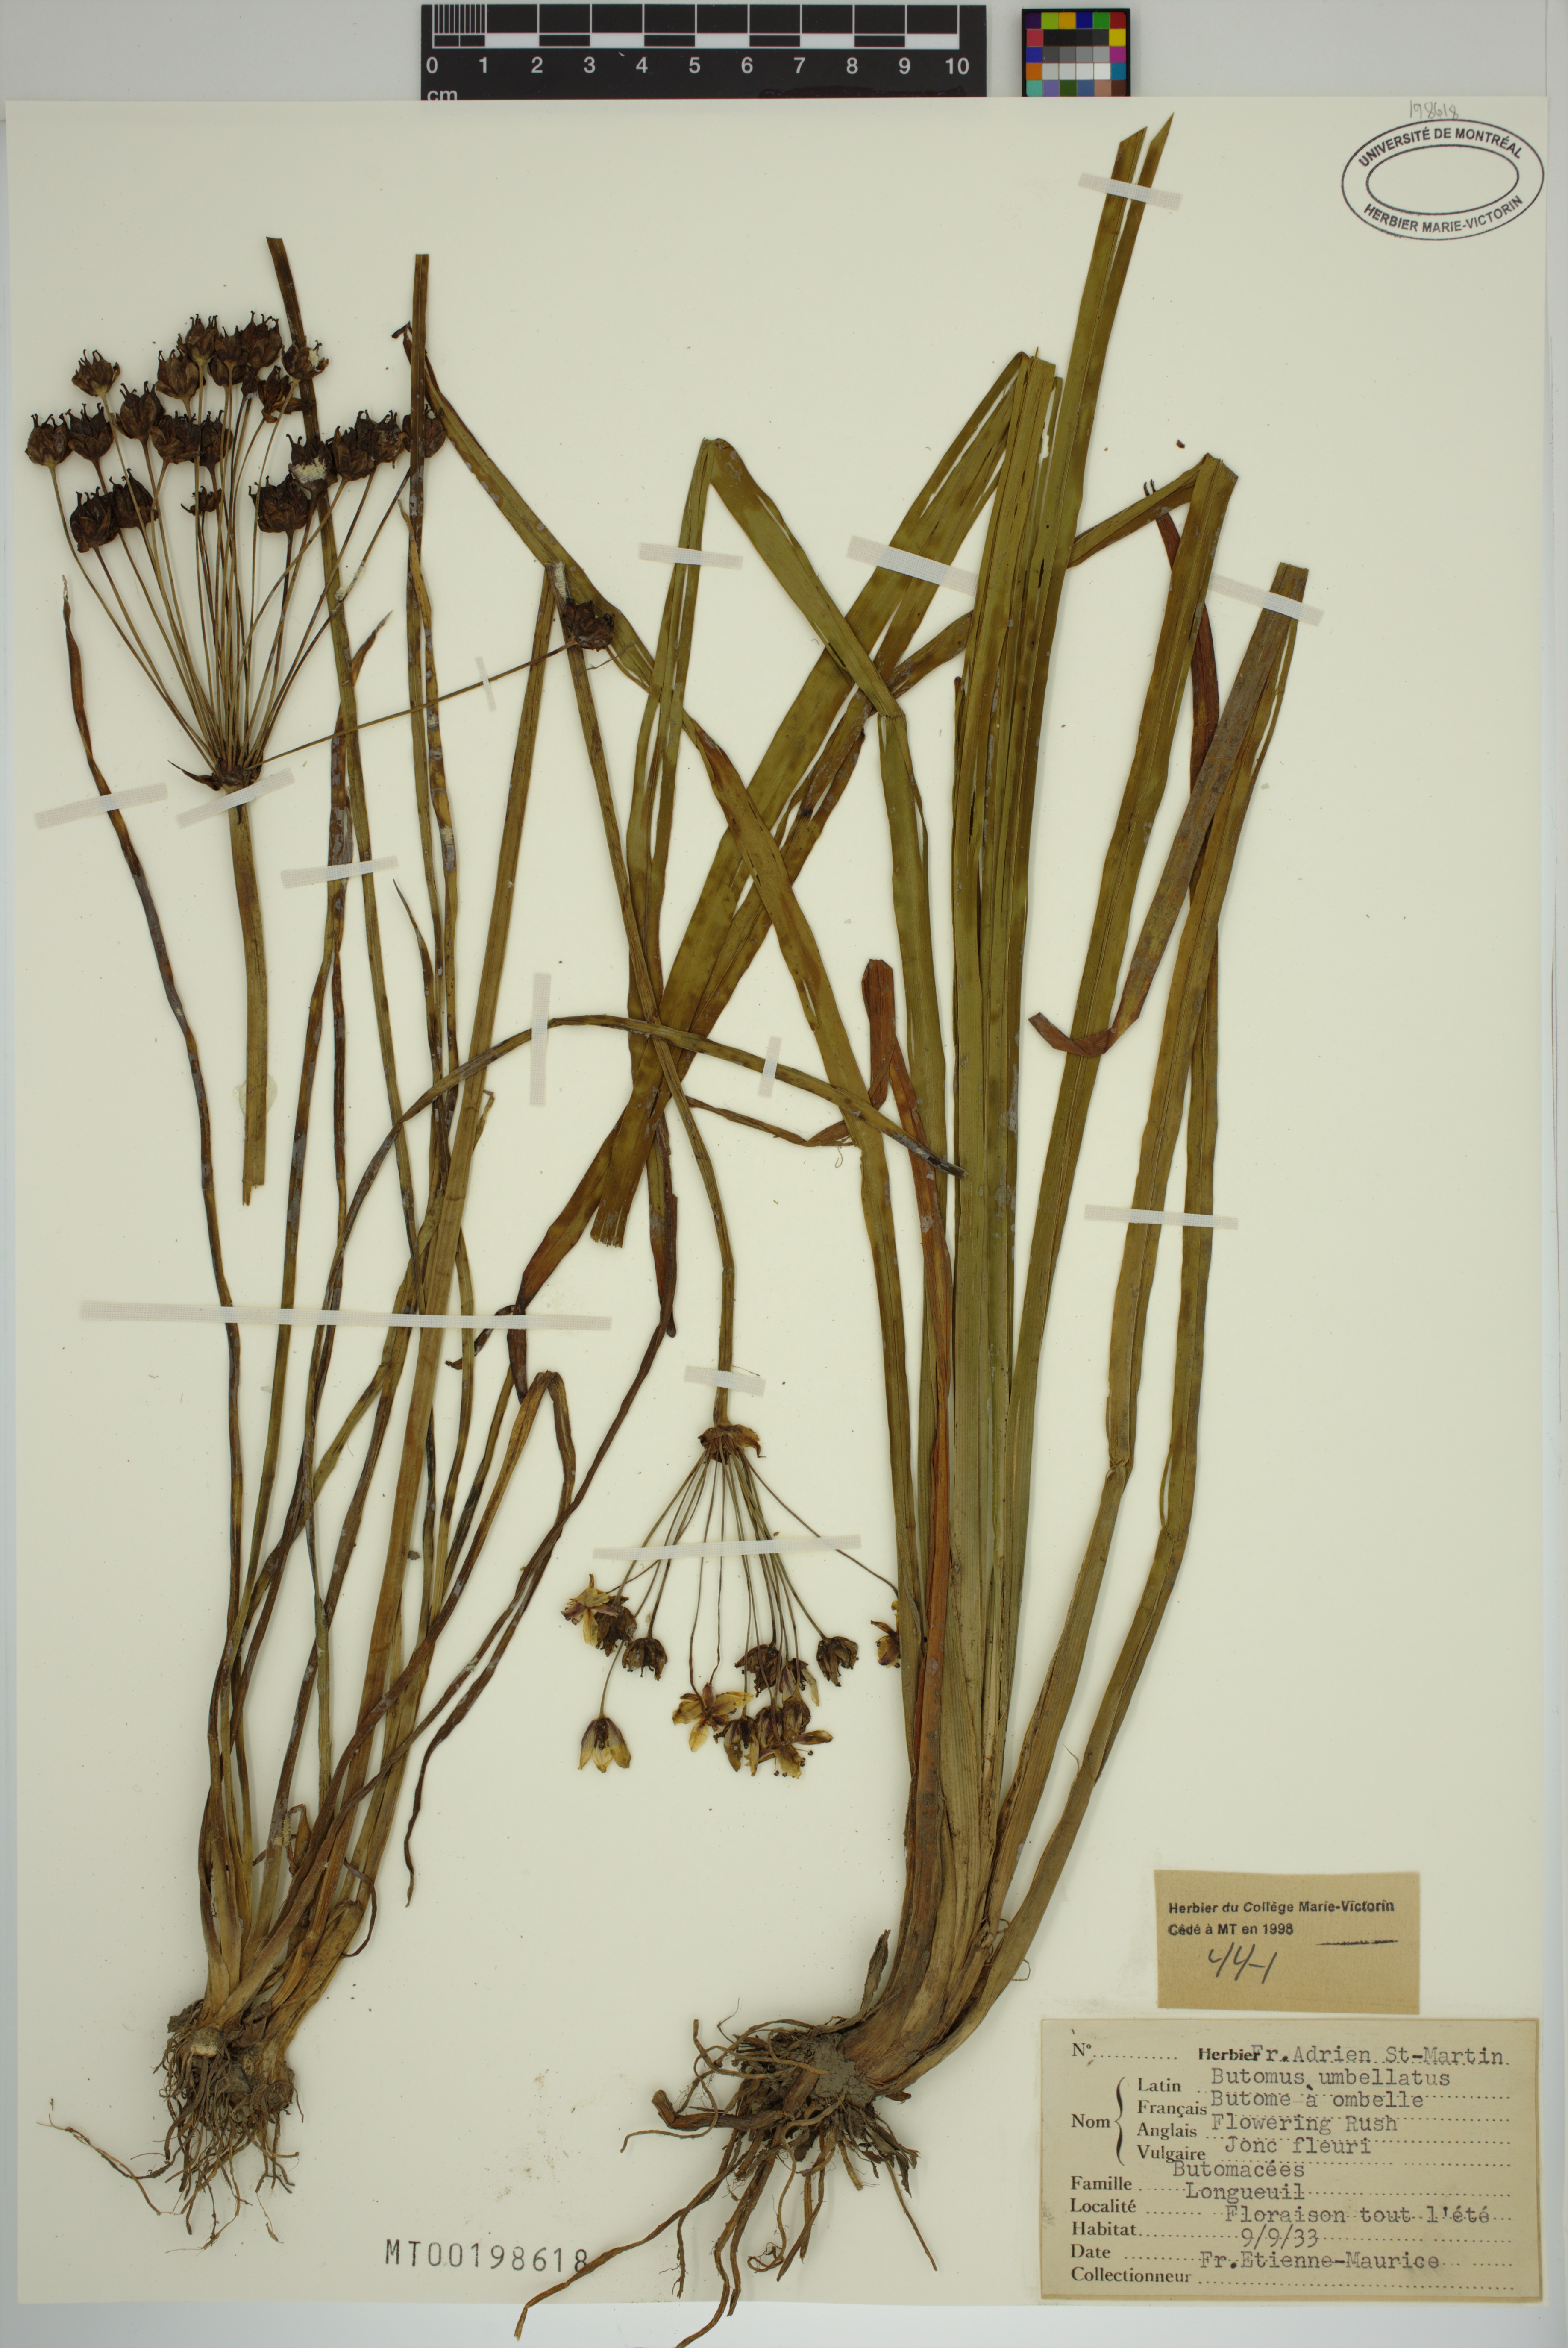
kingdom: Plantae
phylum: Tracheophyta
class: Liliopsida
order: Alismatales
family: Butomaceae
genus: Butomus
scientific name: Butomus umbellatus
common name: Flowering-rush
